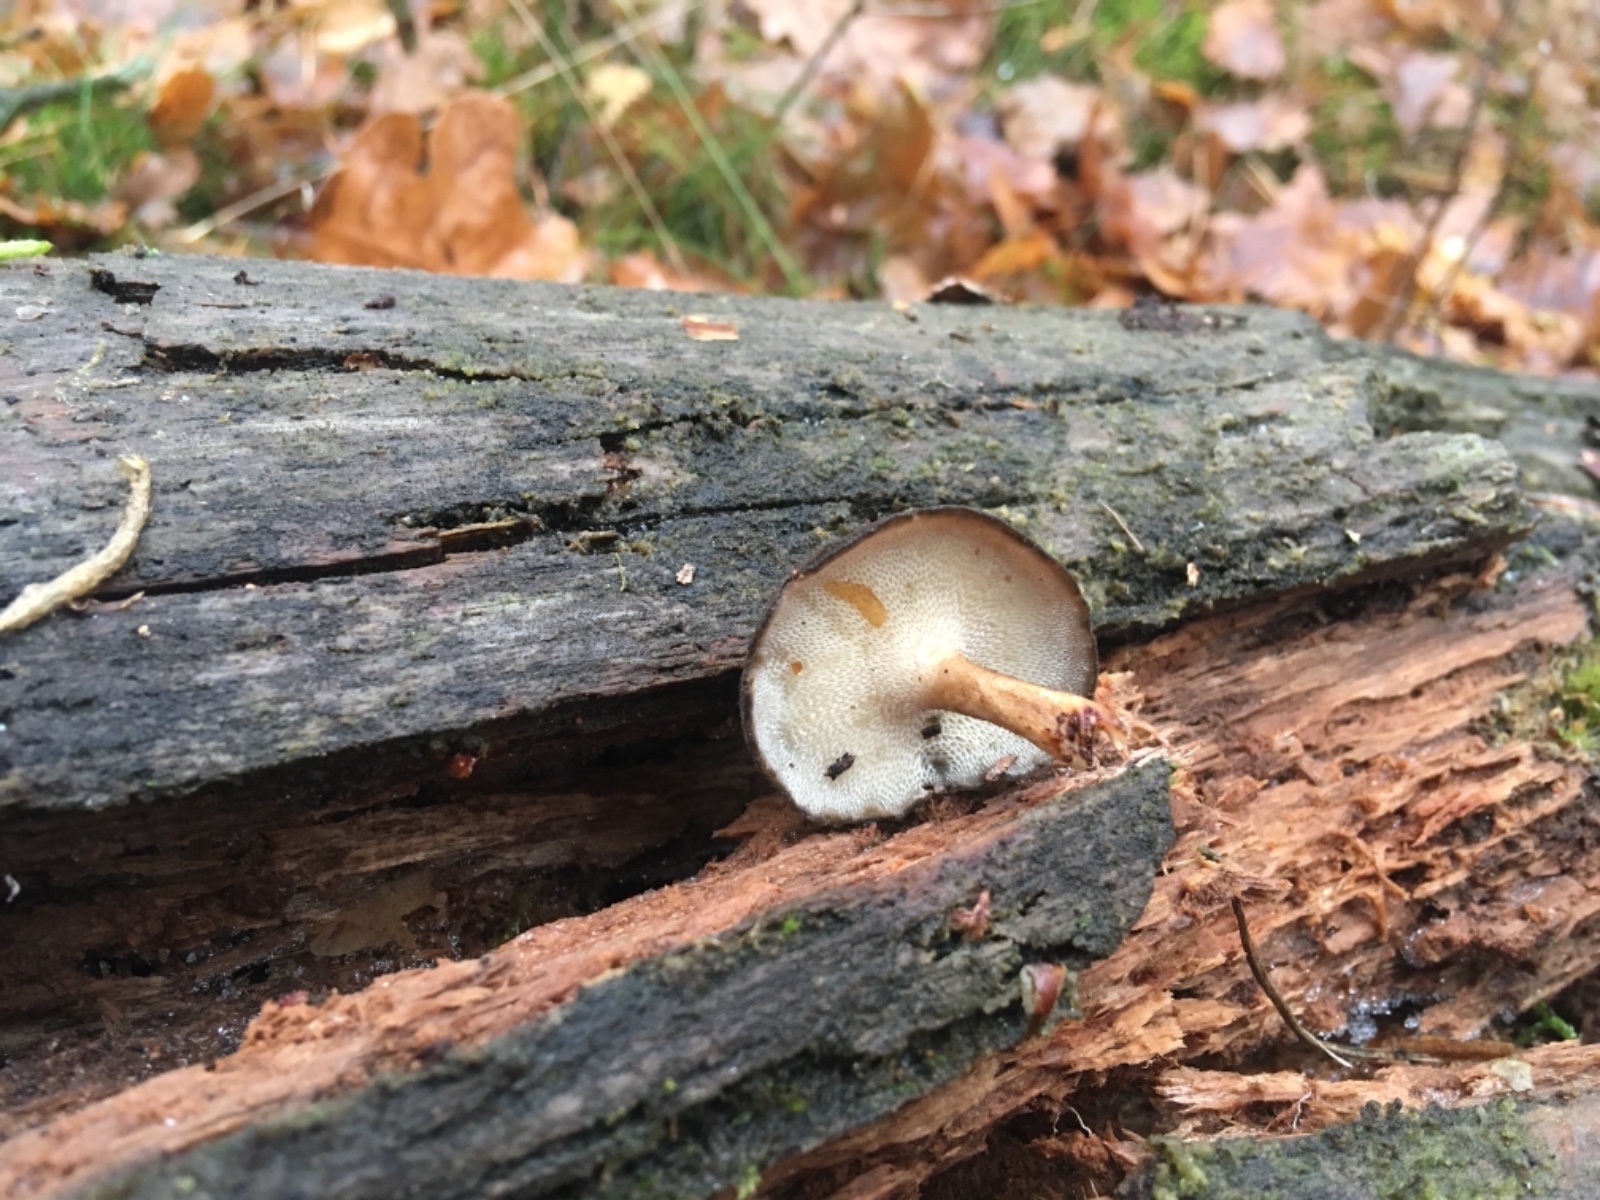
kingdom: Fungi
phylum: Basidiomycota
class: Agaricomycetes
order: Polyporales
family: Polyporaceae
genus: Lentinus
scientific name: Lentinus brumalis
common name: vinter-stilkporesvamp
